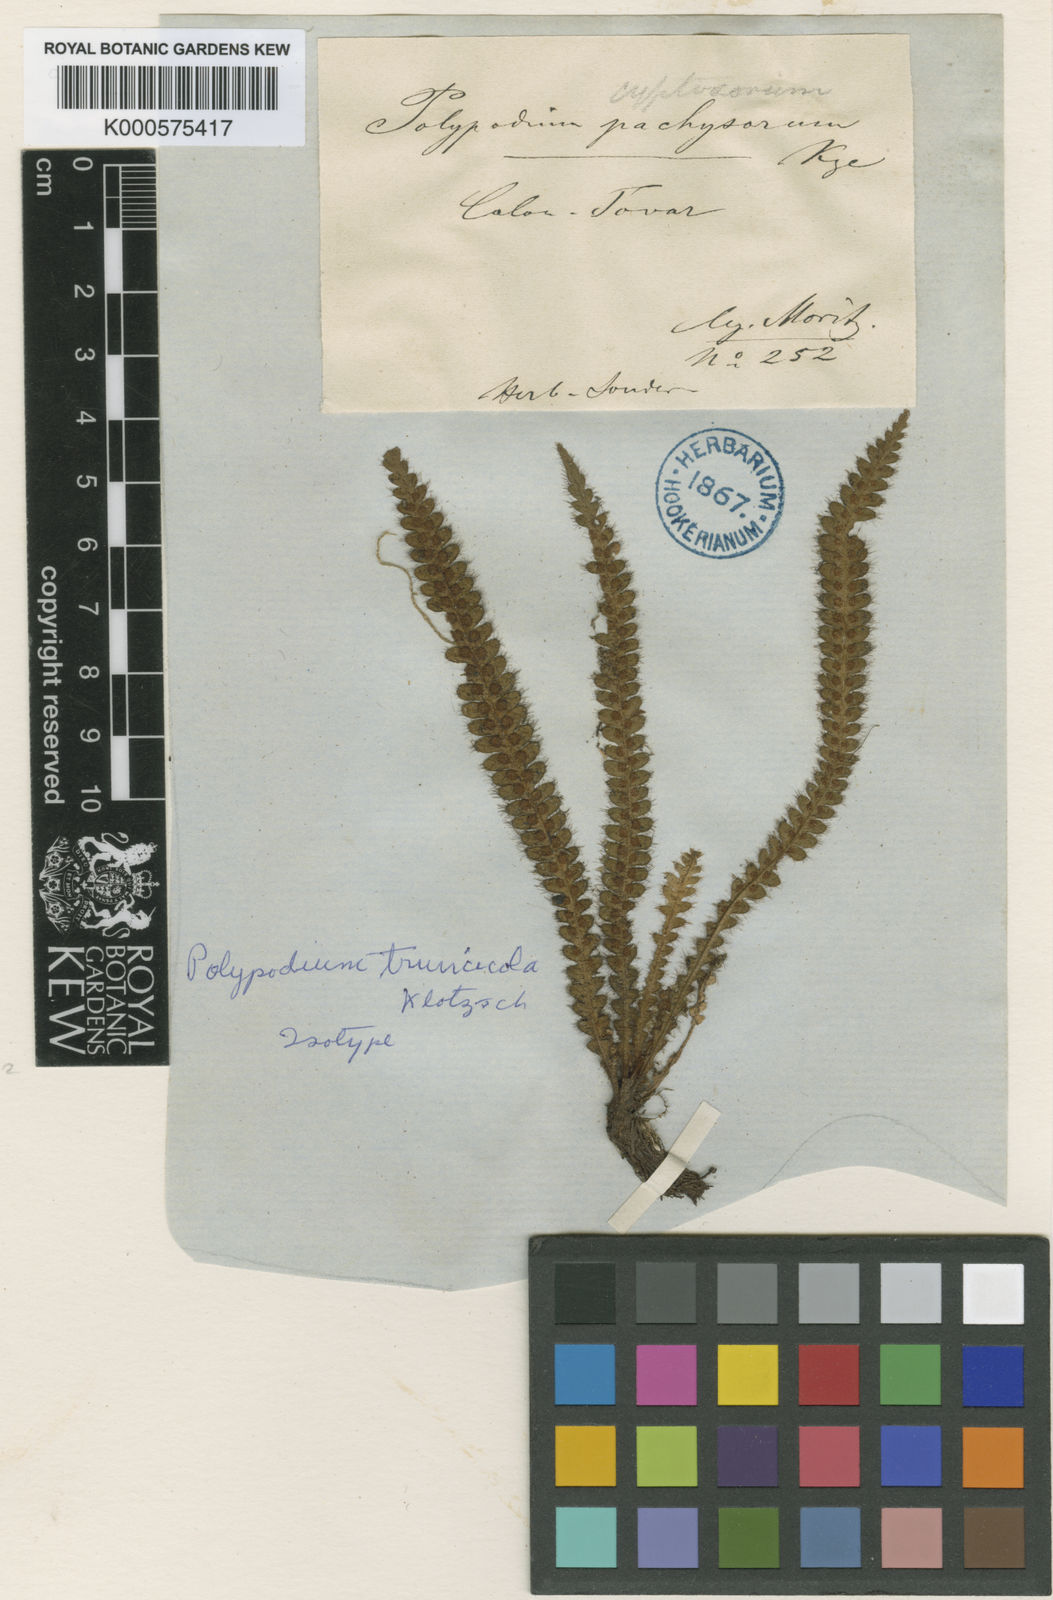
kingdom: Plantae
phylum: Tracheophyta
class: Polypodiopsida
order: Polypodiales
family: Polypodiaceae
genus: Moranopteris
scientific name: Moranopteris truncicola
